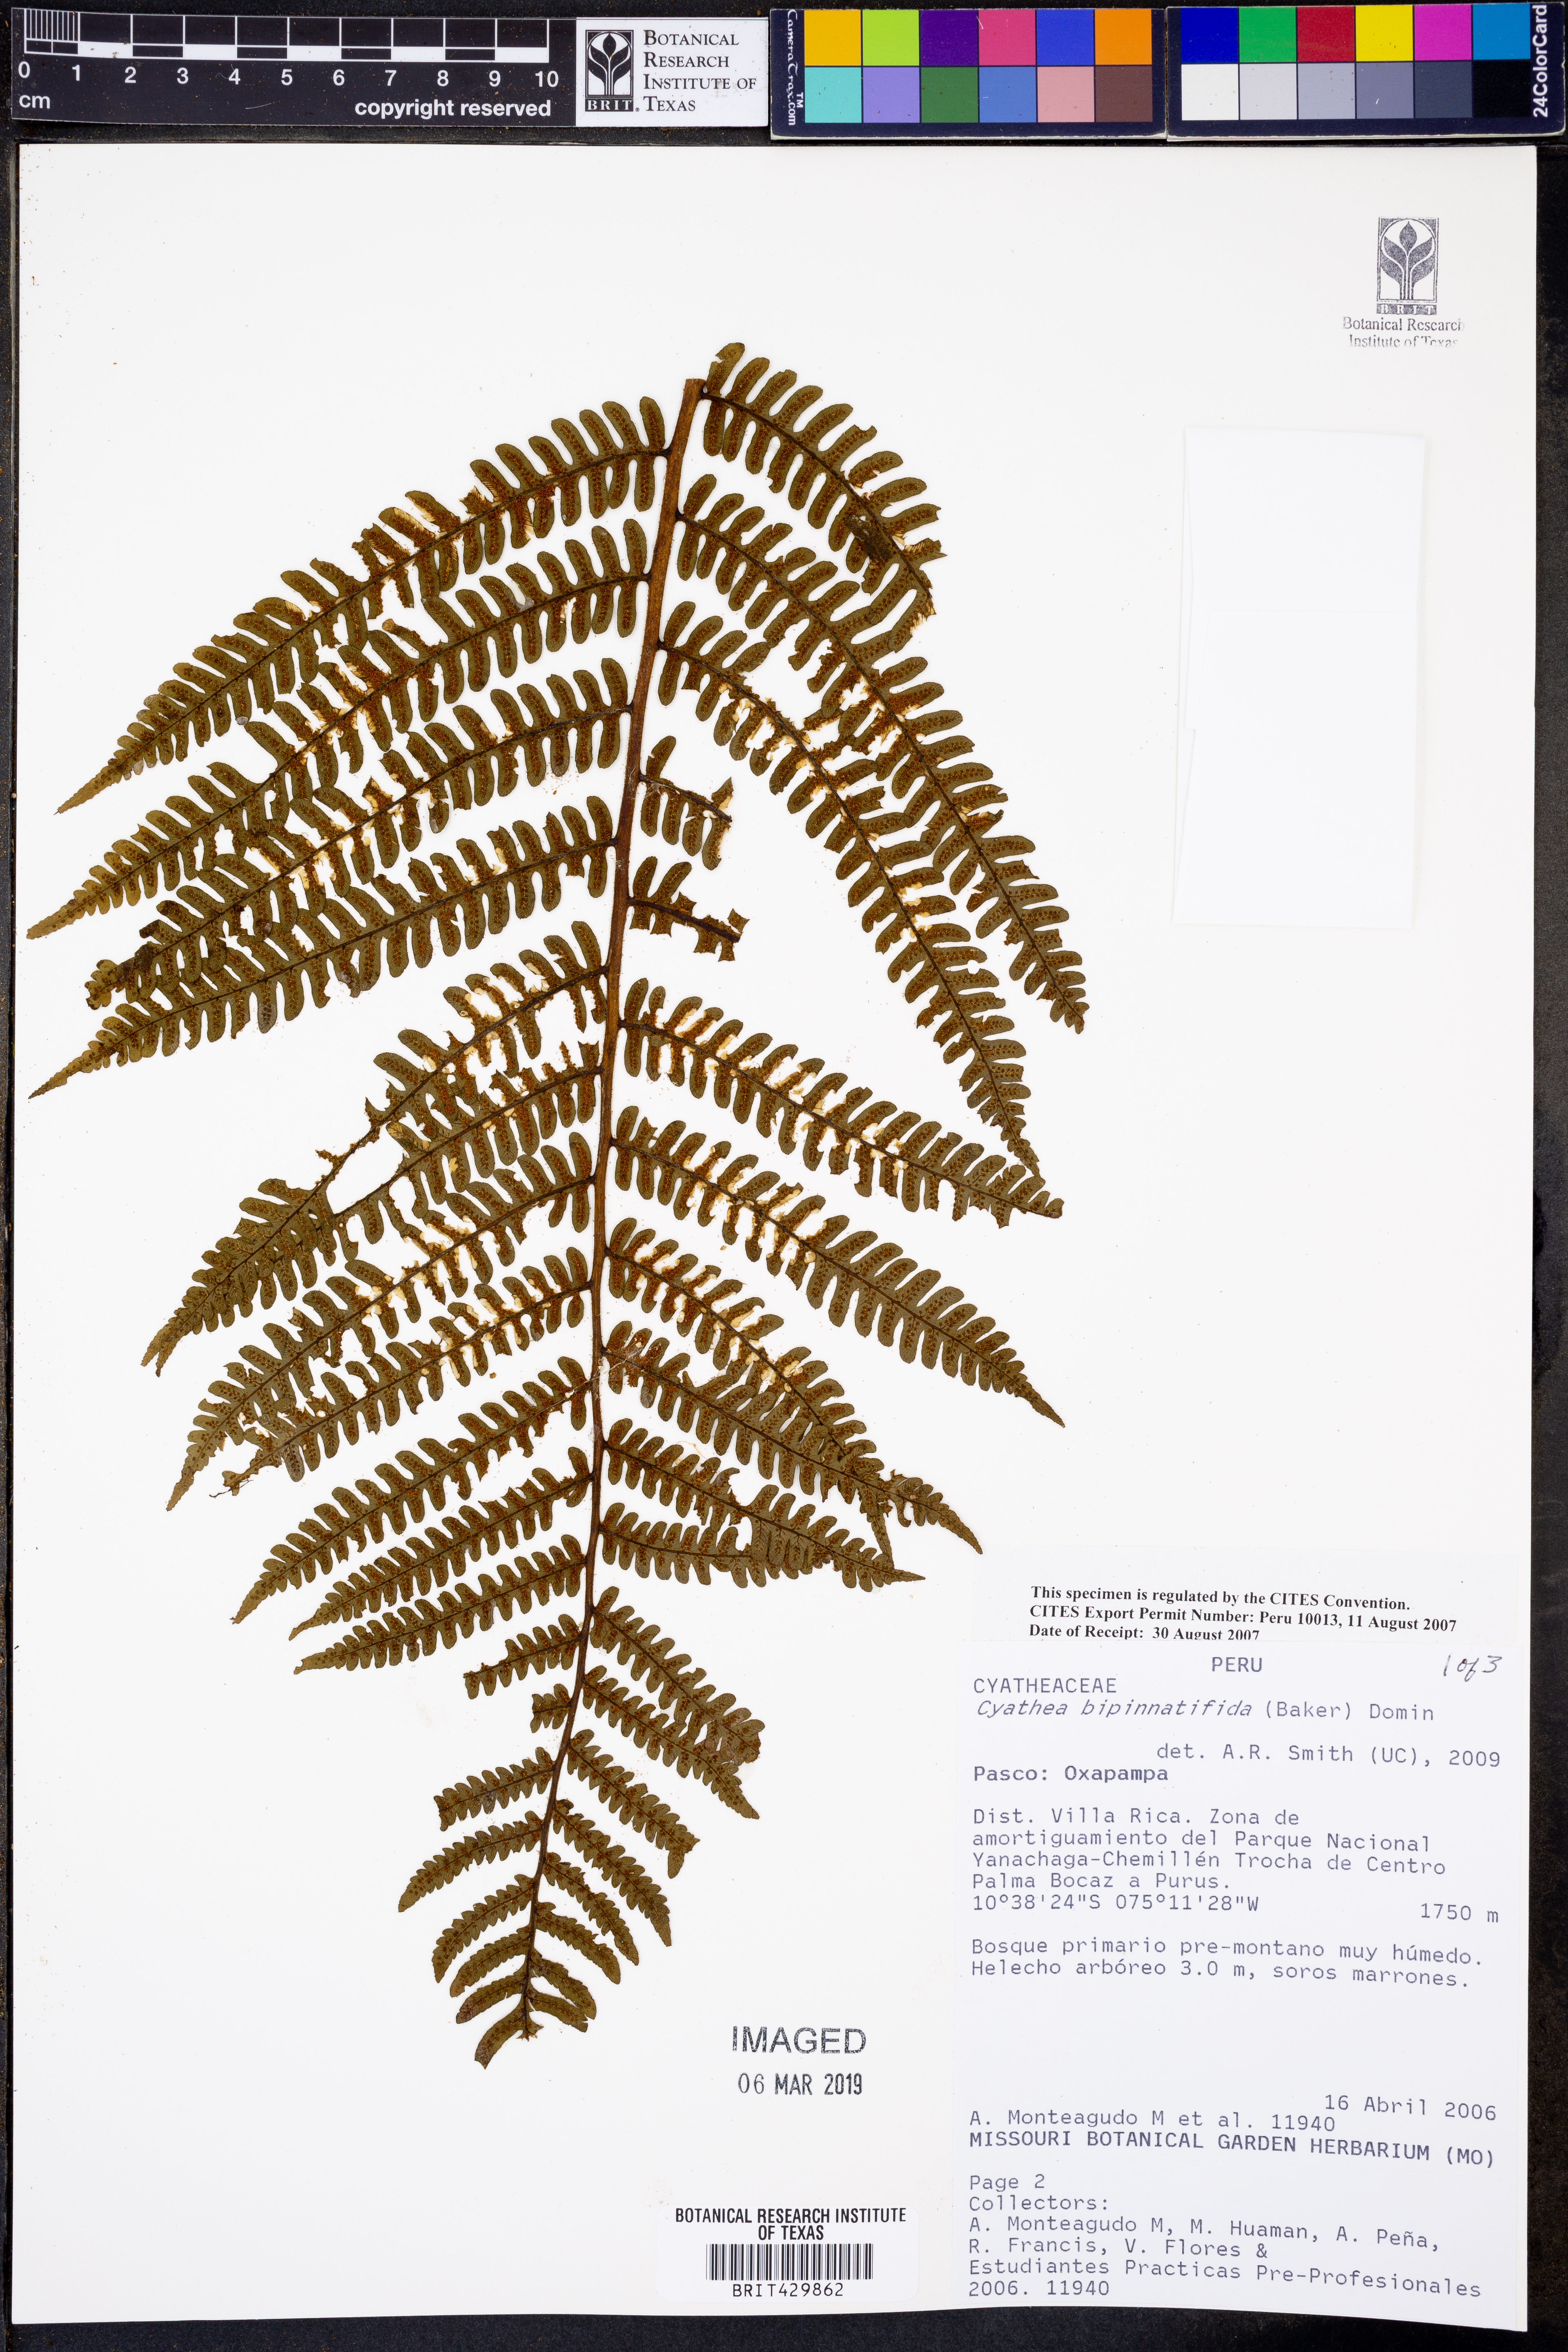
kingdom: Plantae
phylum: Tracheophyta
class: Polypodiopsida
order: Cyatheales
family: Cyatheaceae
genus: Cyathea
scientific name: Cyathea bipinnatifida
